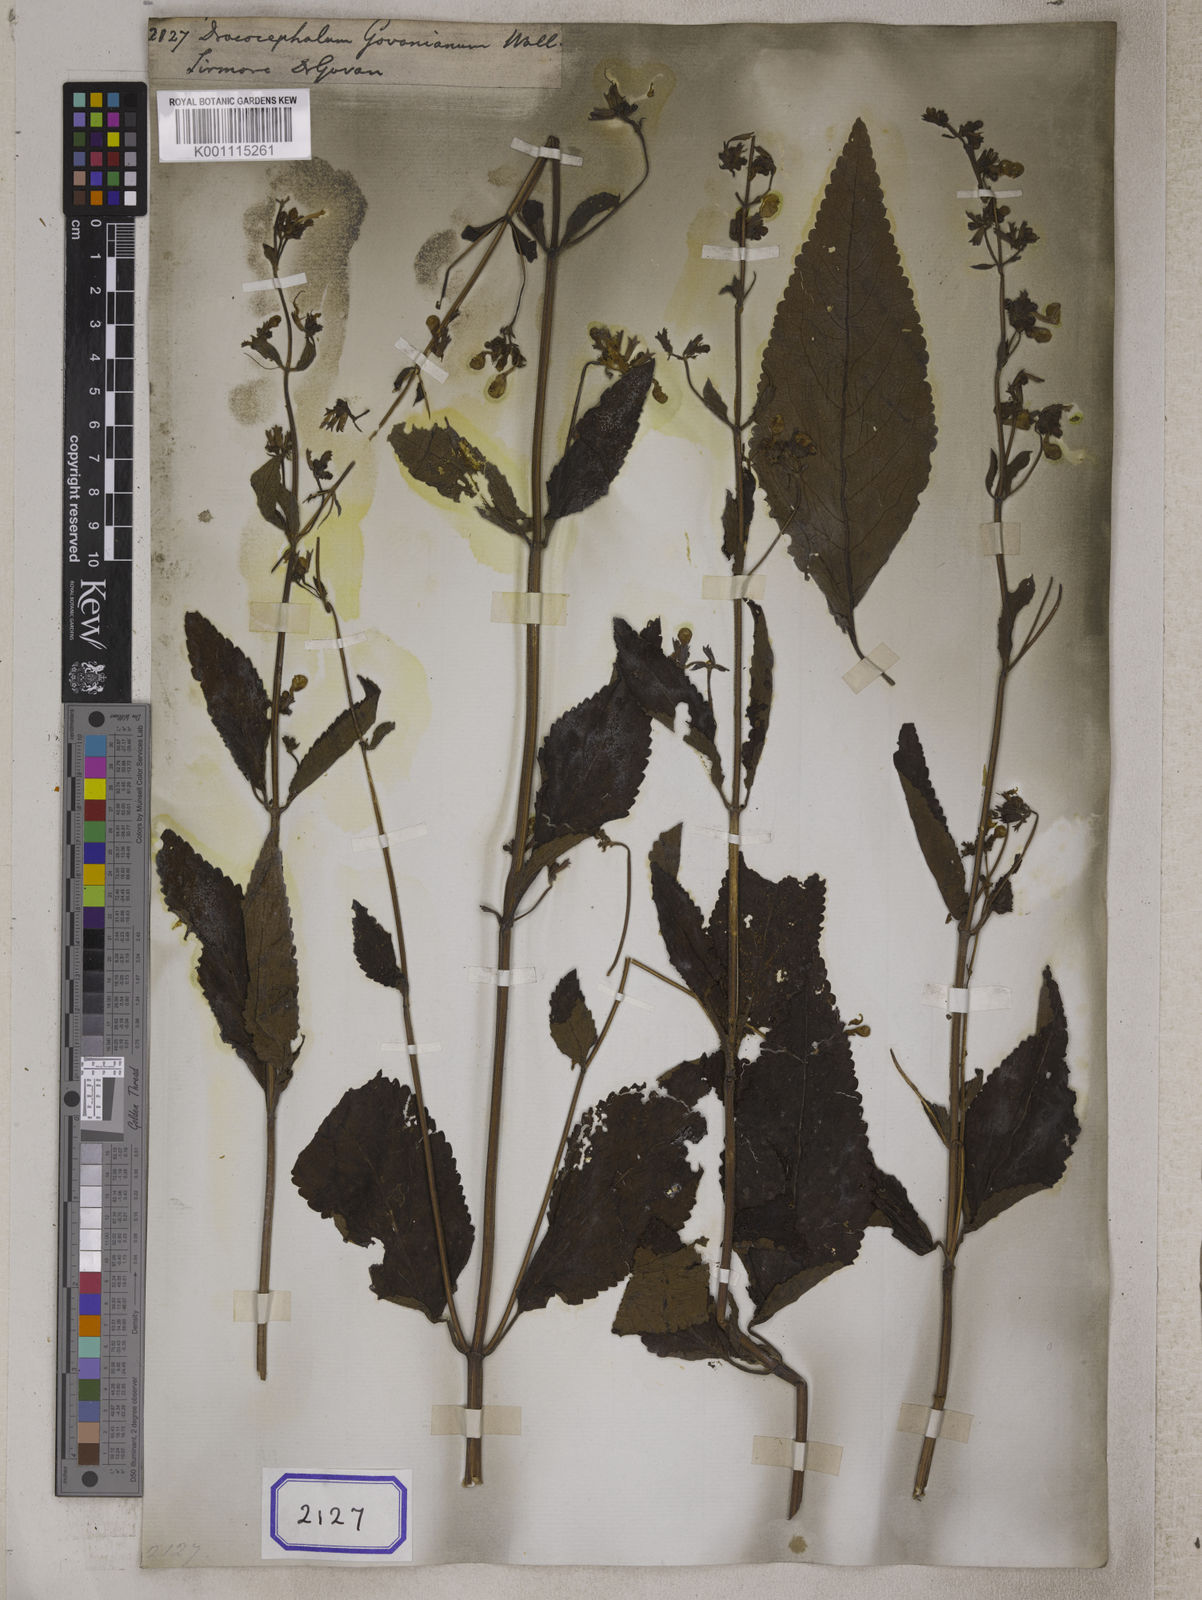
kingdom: Plantae
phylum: Tracheophyta
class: Magnoliopsida
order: Lamiales
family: Lamiaceae
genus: Nepeta
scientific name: Nepeta govaniana
